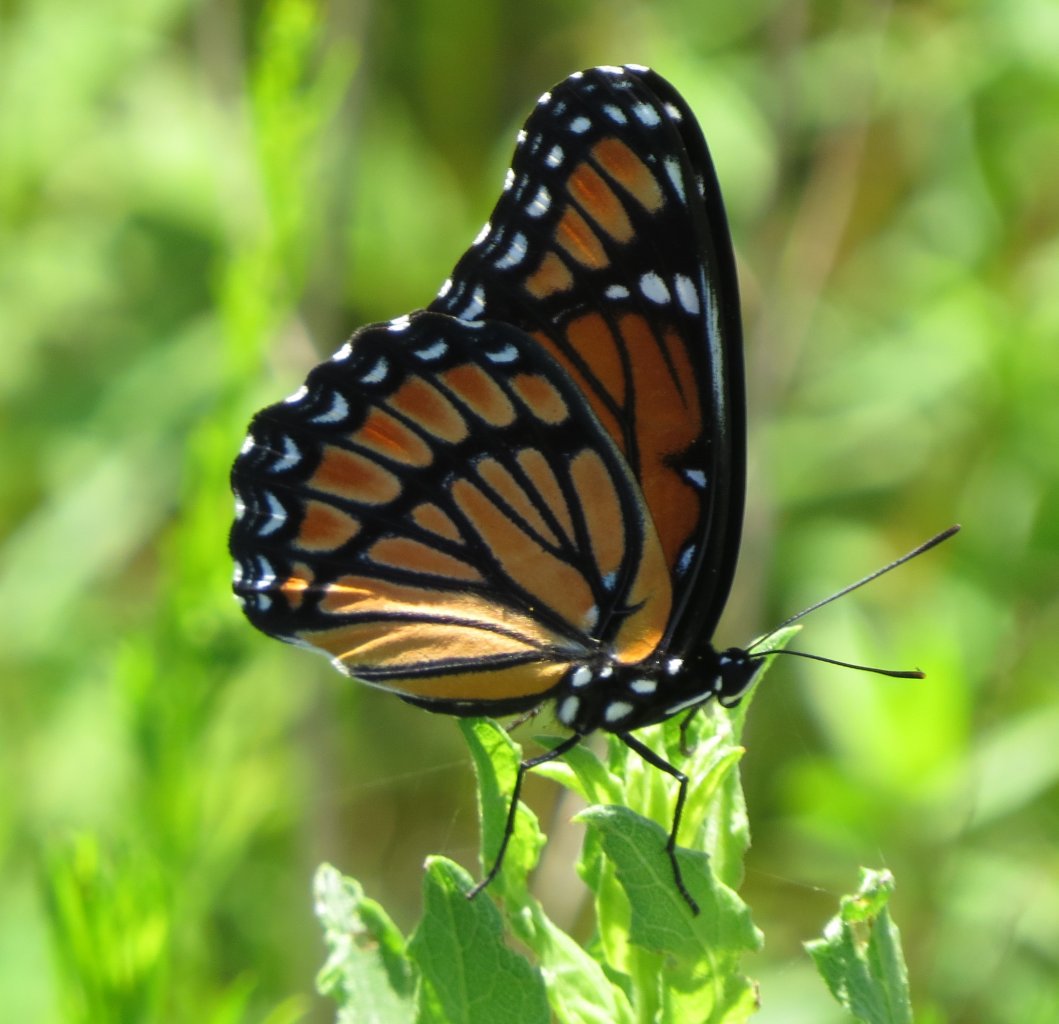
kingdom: Animalia
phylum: Arthropoda
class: Insecta
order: Lepidoptera
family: Nymphalidae
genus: Limenitis
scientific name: Limenitis archippus
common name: Viceroy
